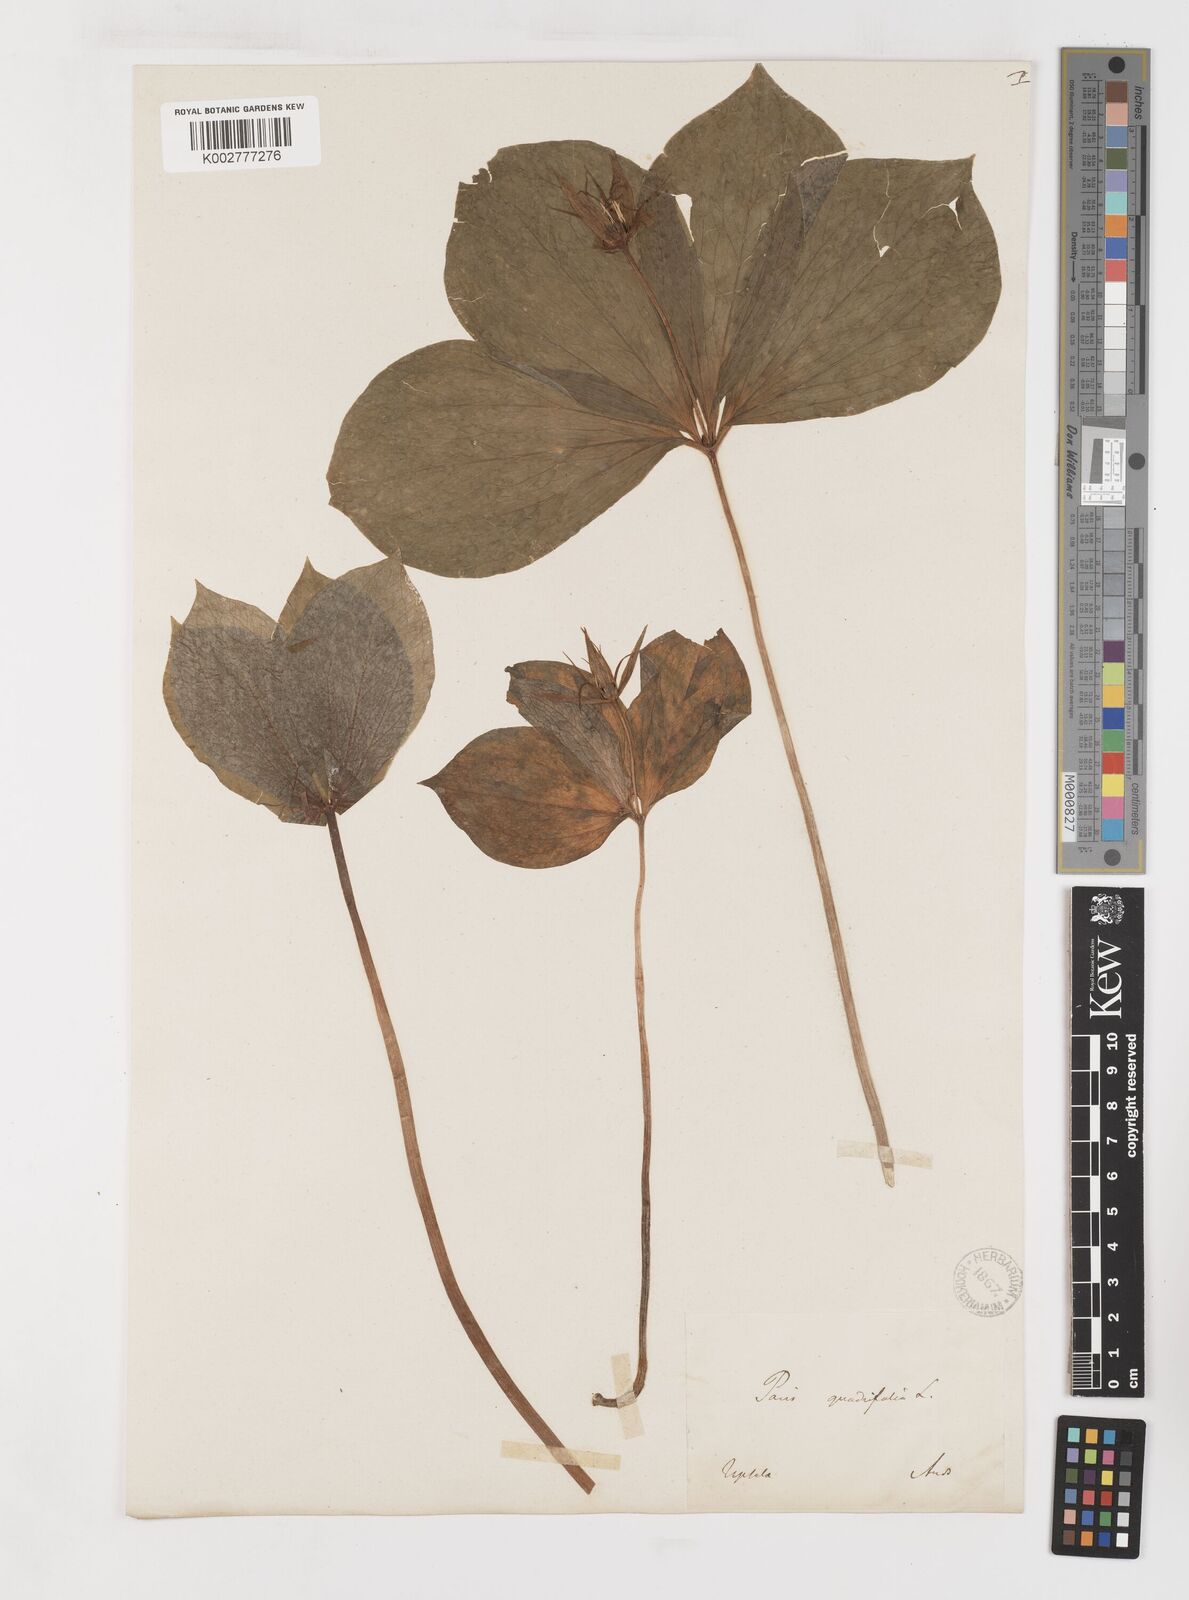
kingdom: Plantae
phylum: Tracheophyta
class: Liliopsida
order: Liliales
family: Melanthiaceae
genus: Paris
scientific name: Paris quadrifolia
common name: Herb-paris
